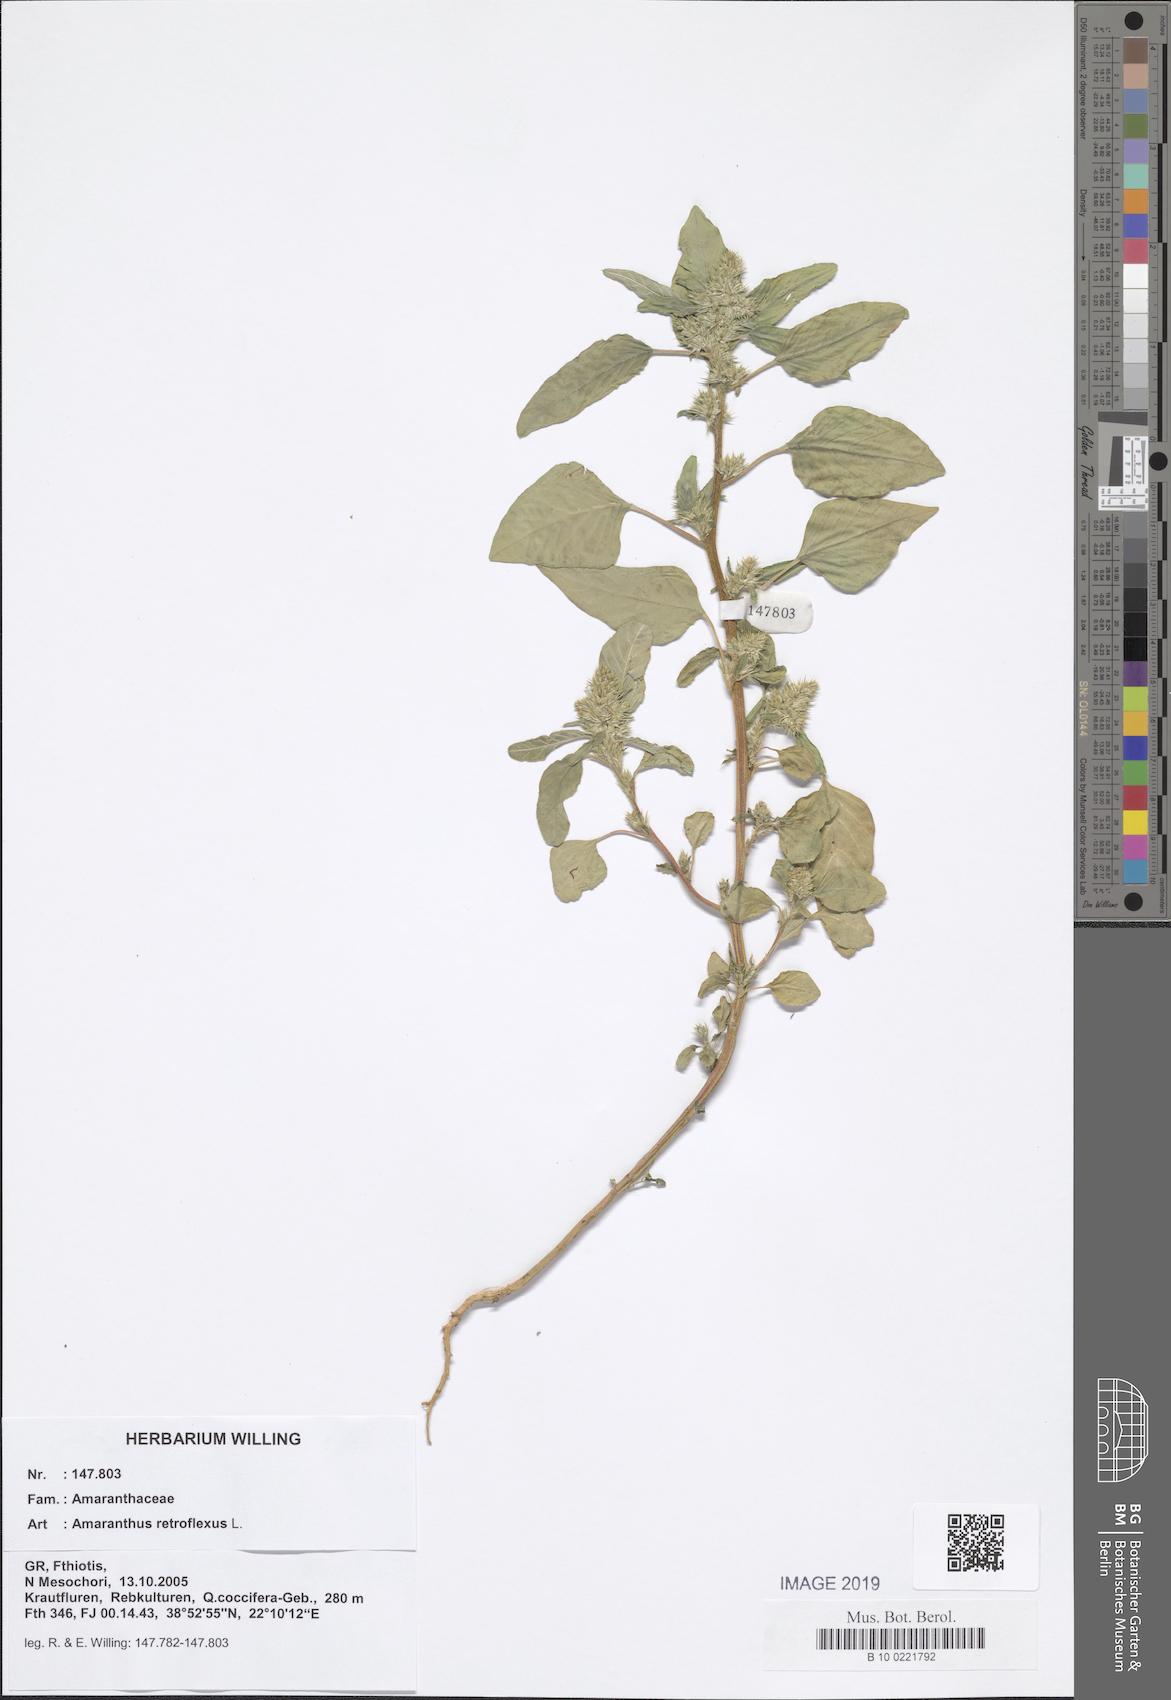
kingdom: Plantae
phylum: Tracheophyta
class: Magnoliopsida
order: Caryophyllales
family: Amaranthaceae
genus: Amaranthus
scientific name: Amaranthus retroflexus
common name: Redroot amaranth
